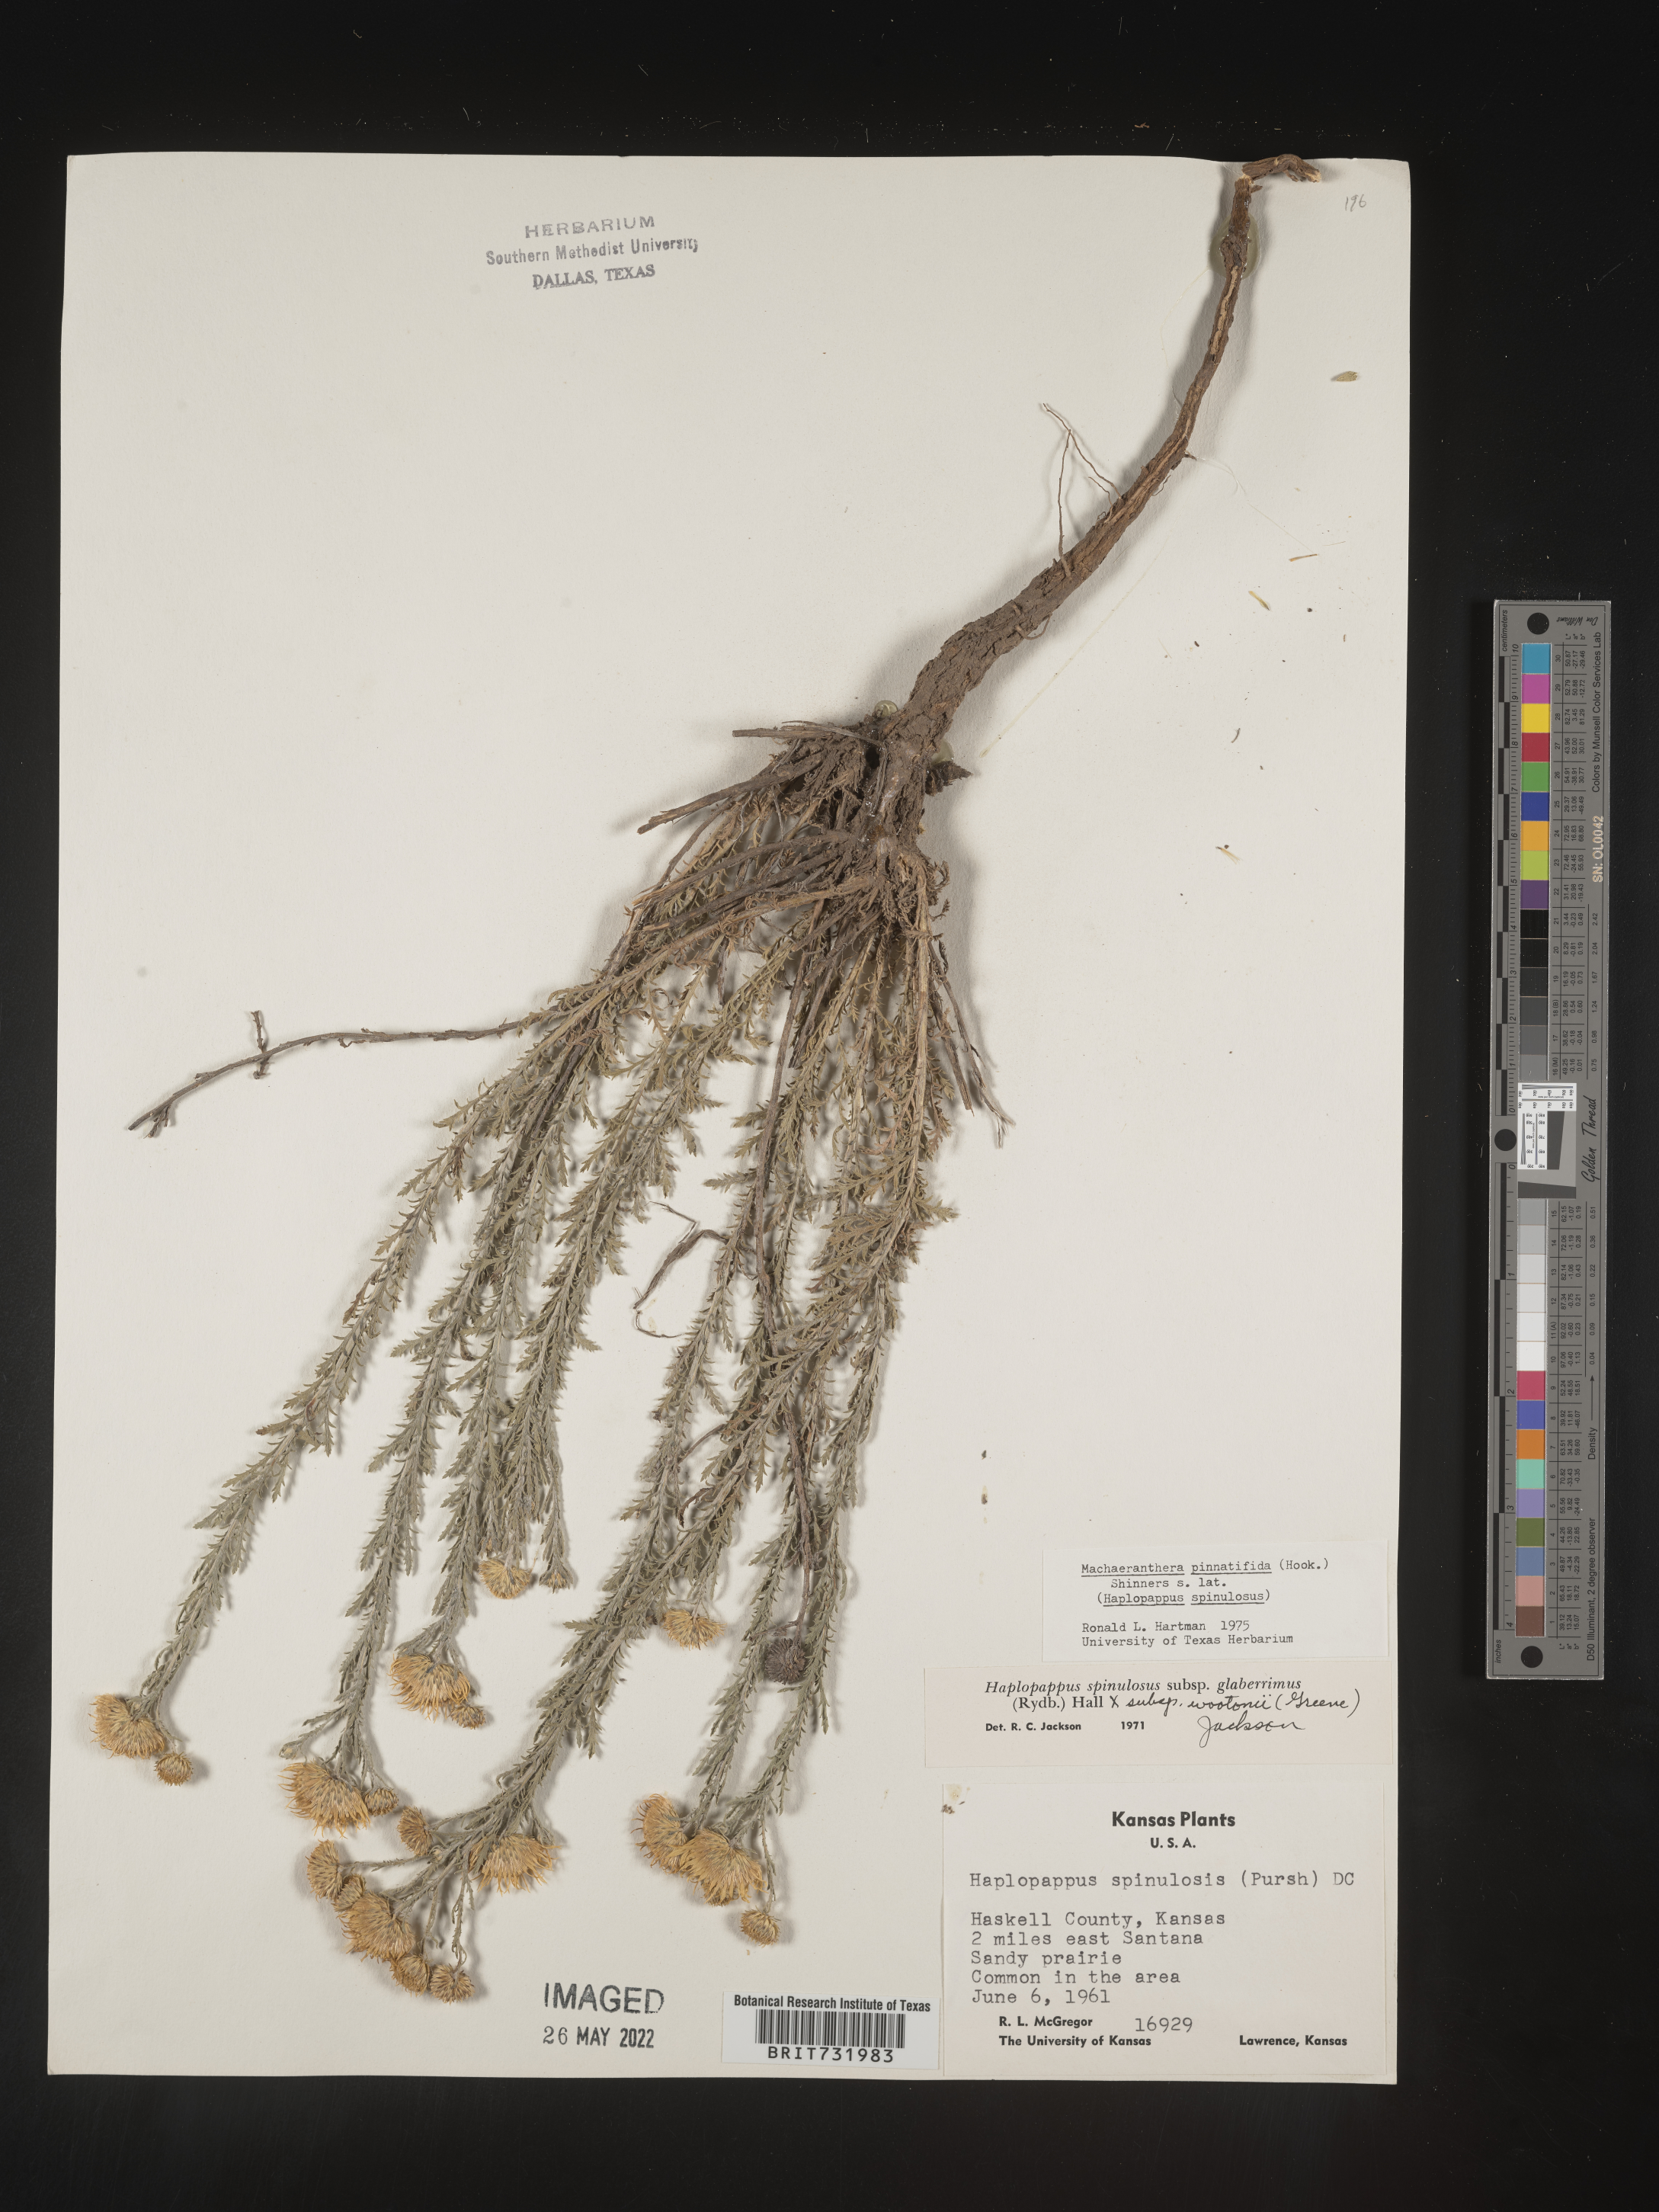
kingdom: Plantae
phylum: Tracheophyta
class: Magnoliopsida
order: Asterales
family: Asteraceae
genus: Xanthisma
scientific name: Xanthisma spinulosum
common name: Spiny goldenweed
